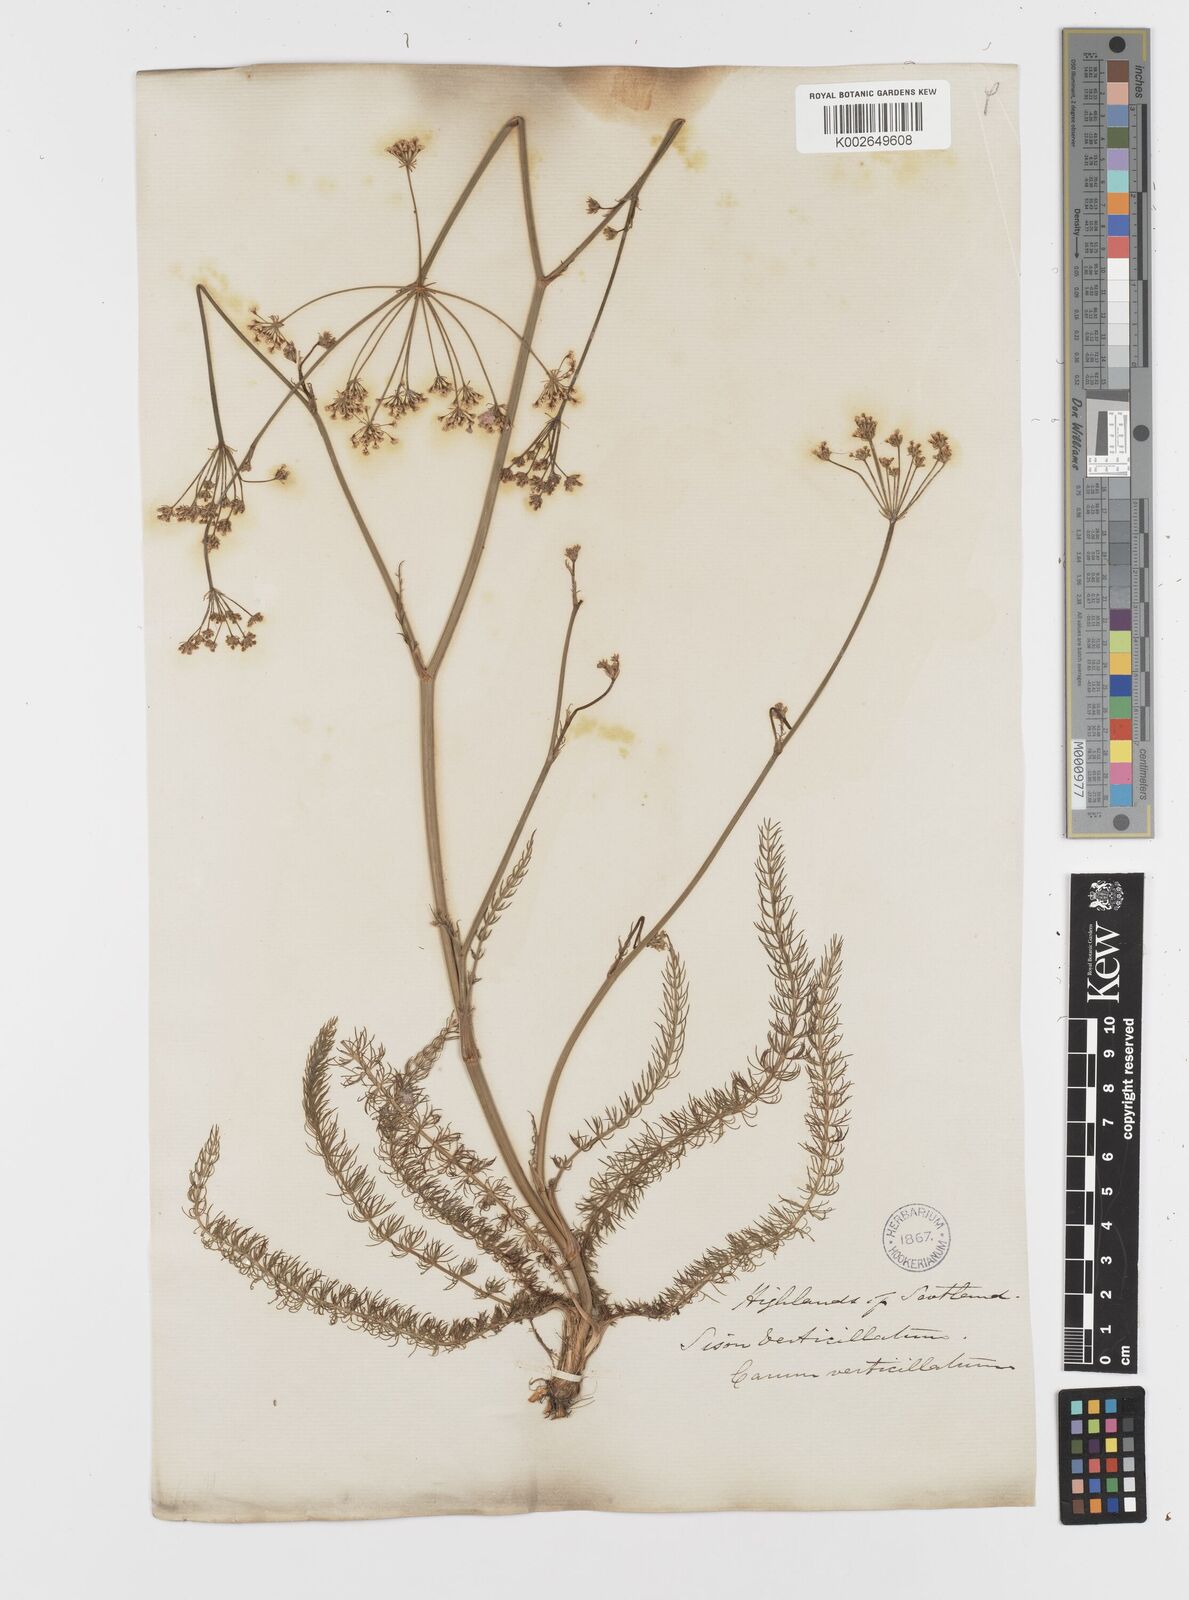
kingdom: Plantae
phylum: Tracheophyta
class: Magnoliopsida
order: Apiales
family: Apiaceae
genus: Trocdaris
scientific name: Trocdaris verticillatum
